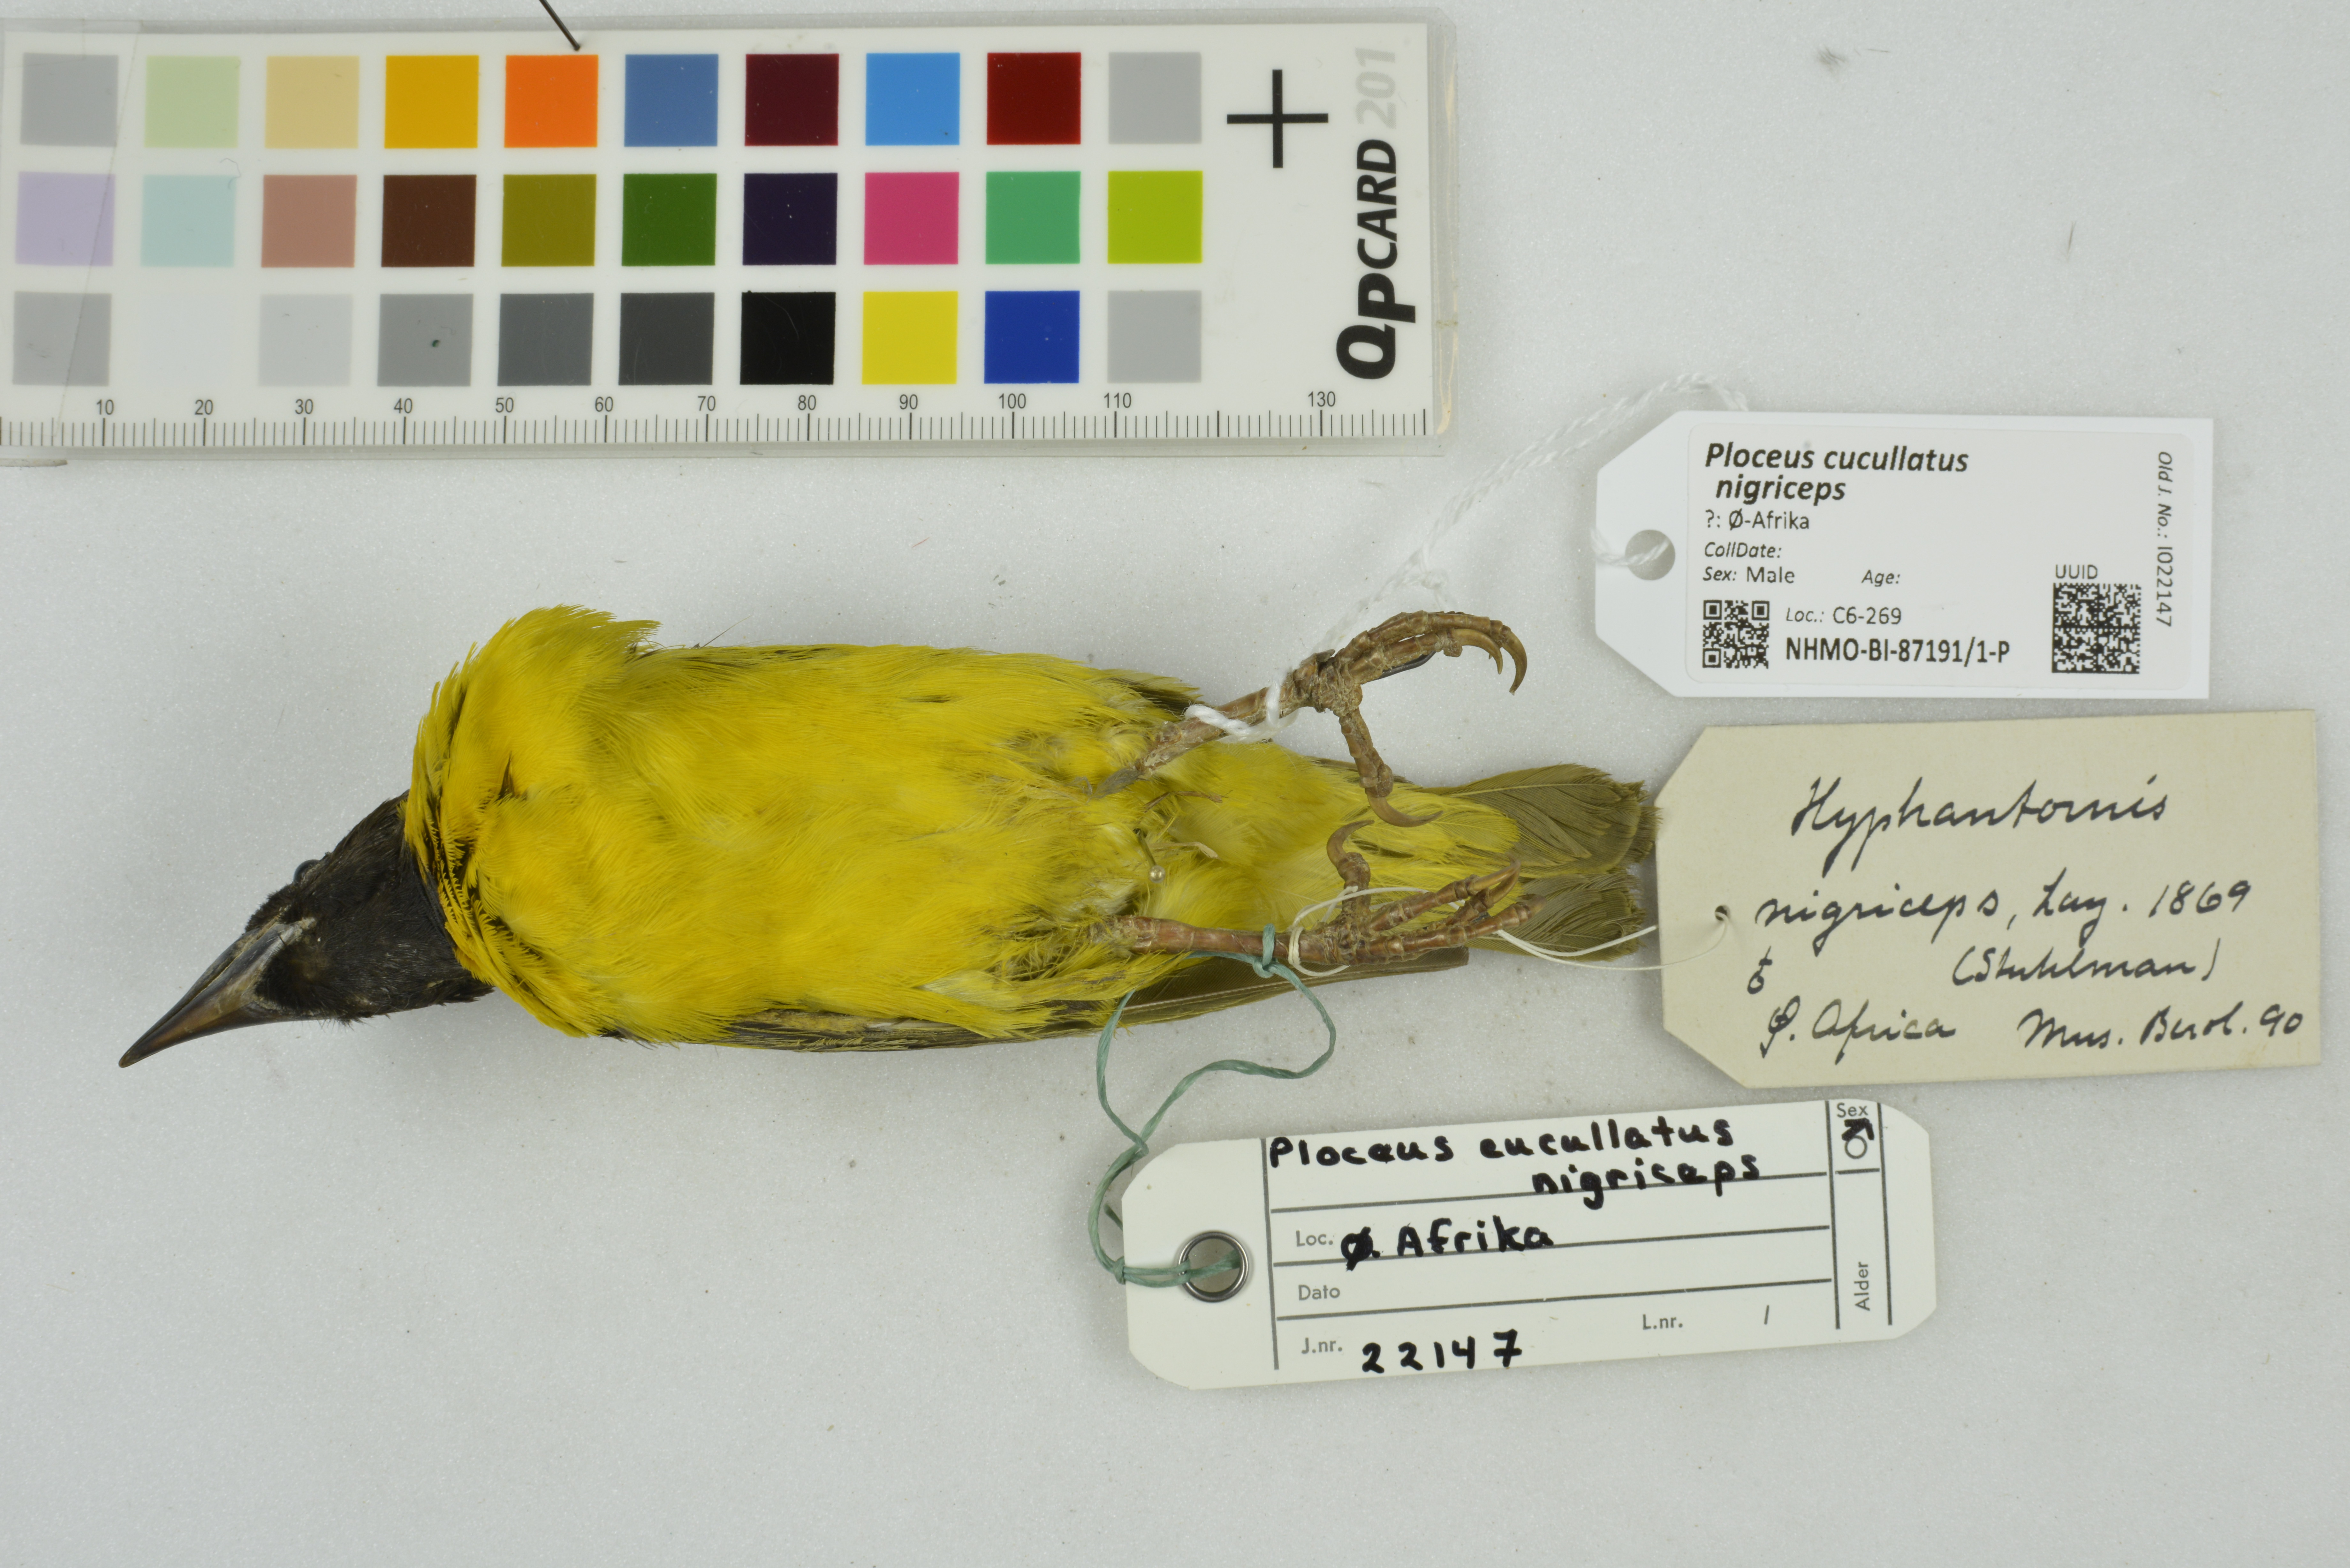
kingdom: Animalia
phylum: Chordata
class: Aves
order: Passeriformes
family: Ploceidae
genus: Ploceus
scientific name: Ploceus cucullatus
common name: Village weaver
